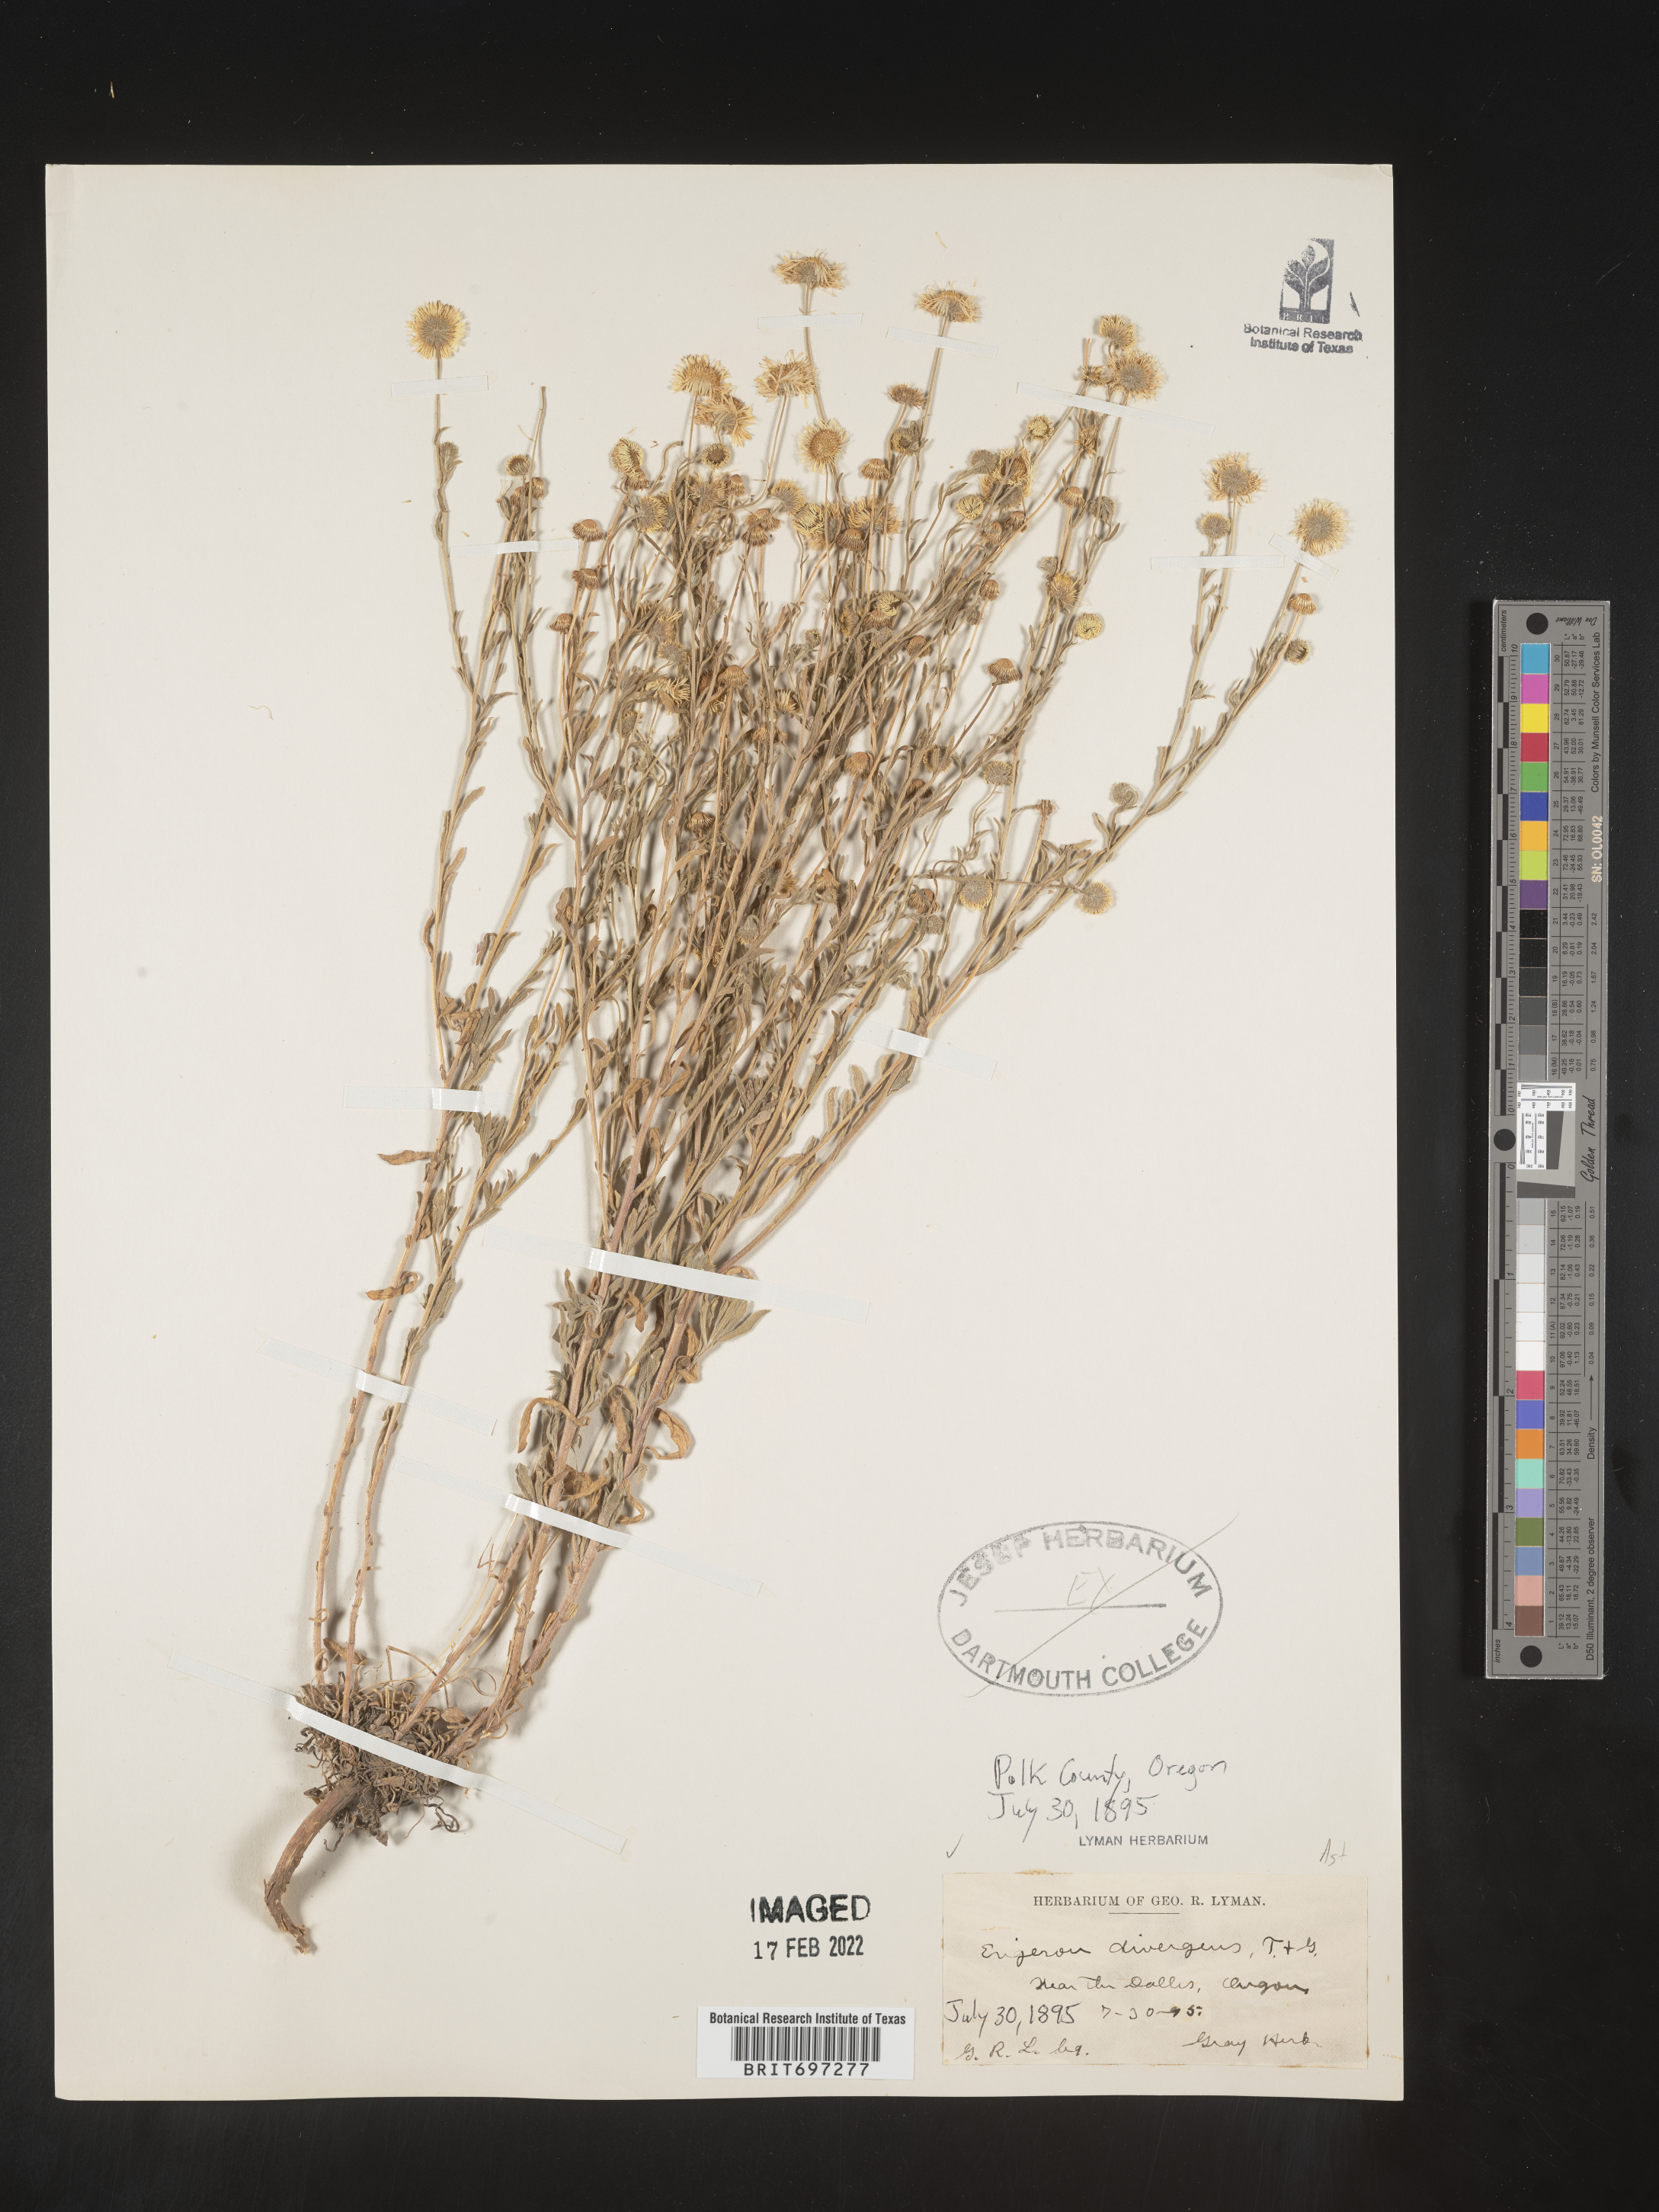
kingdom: Plantae
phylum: Tracheophyta
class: Magnoliopsida
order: Asterales
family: Asteraceae
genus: Erigeron
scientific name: Erigeron divergens
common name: Diffuse fleabane
